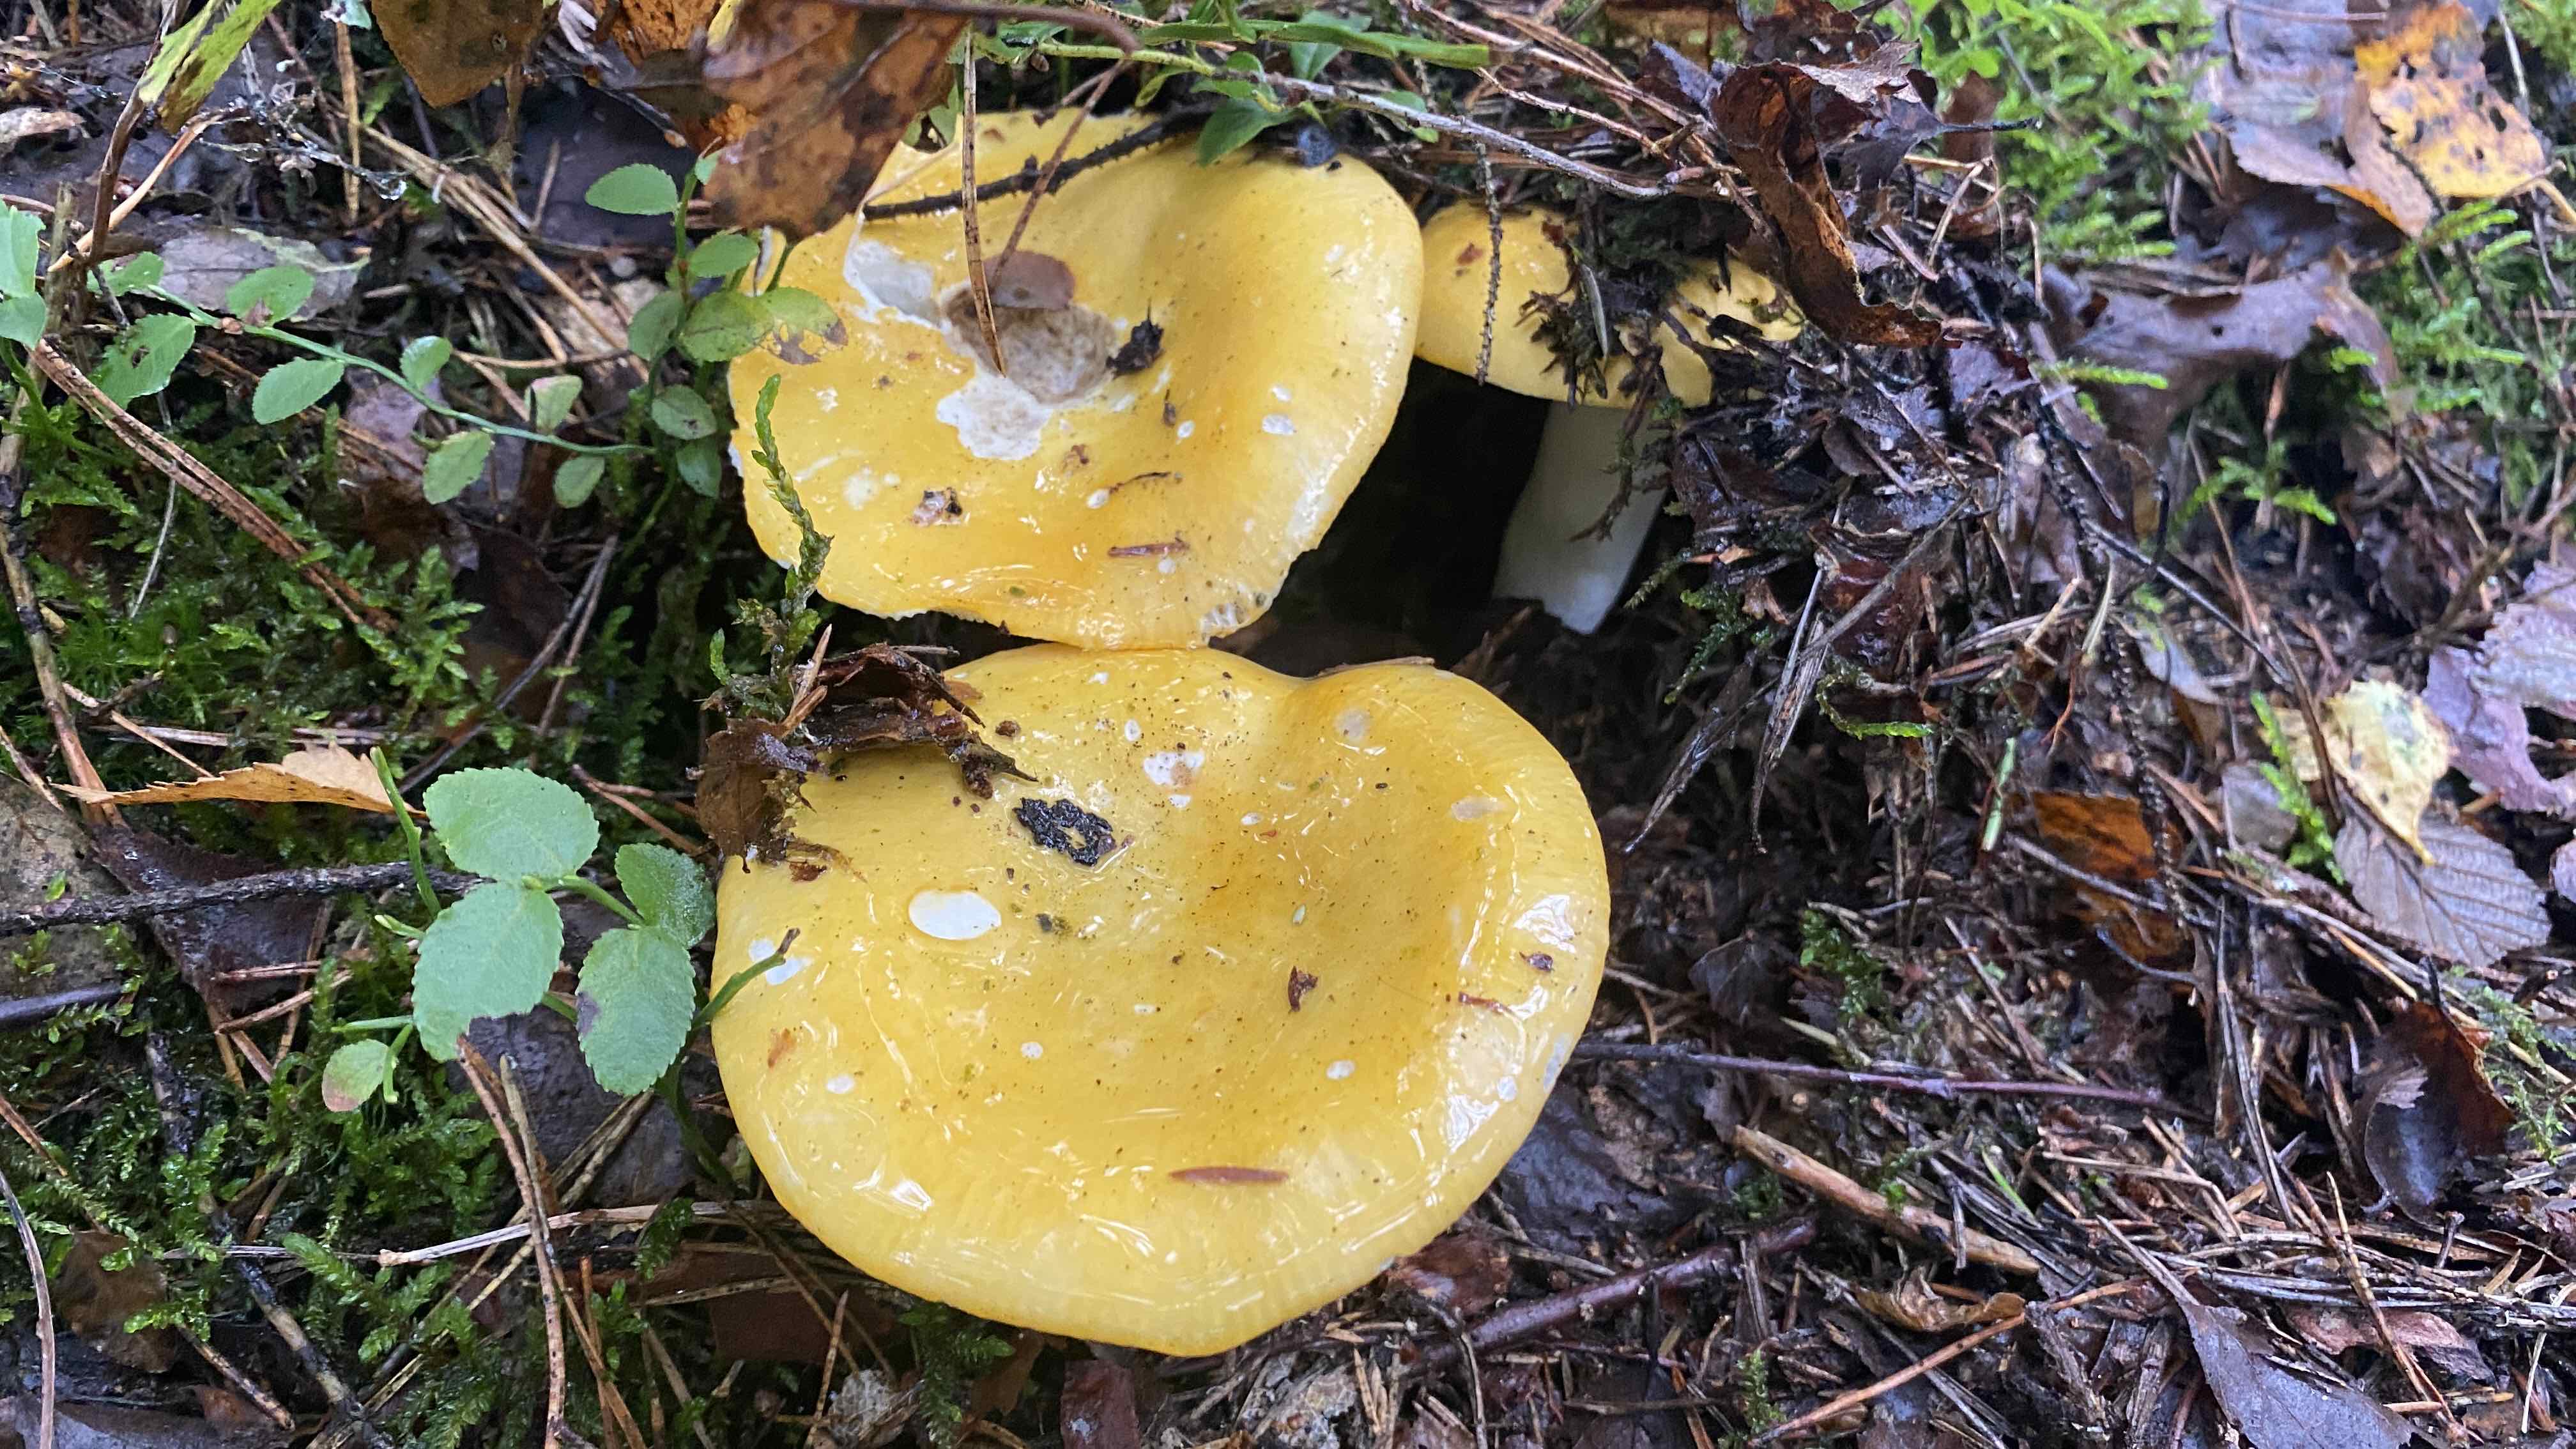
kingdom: Fungi
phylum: Basidiomycota
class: Agaricomycetes
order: Russulales
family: Russulaceae
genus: Russula
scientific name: Russula claroflava
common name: birke-skørhat
